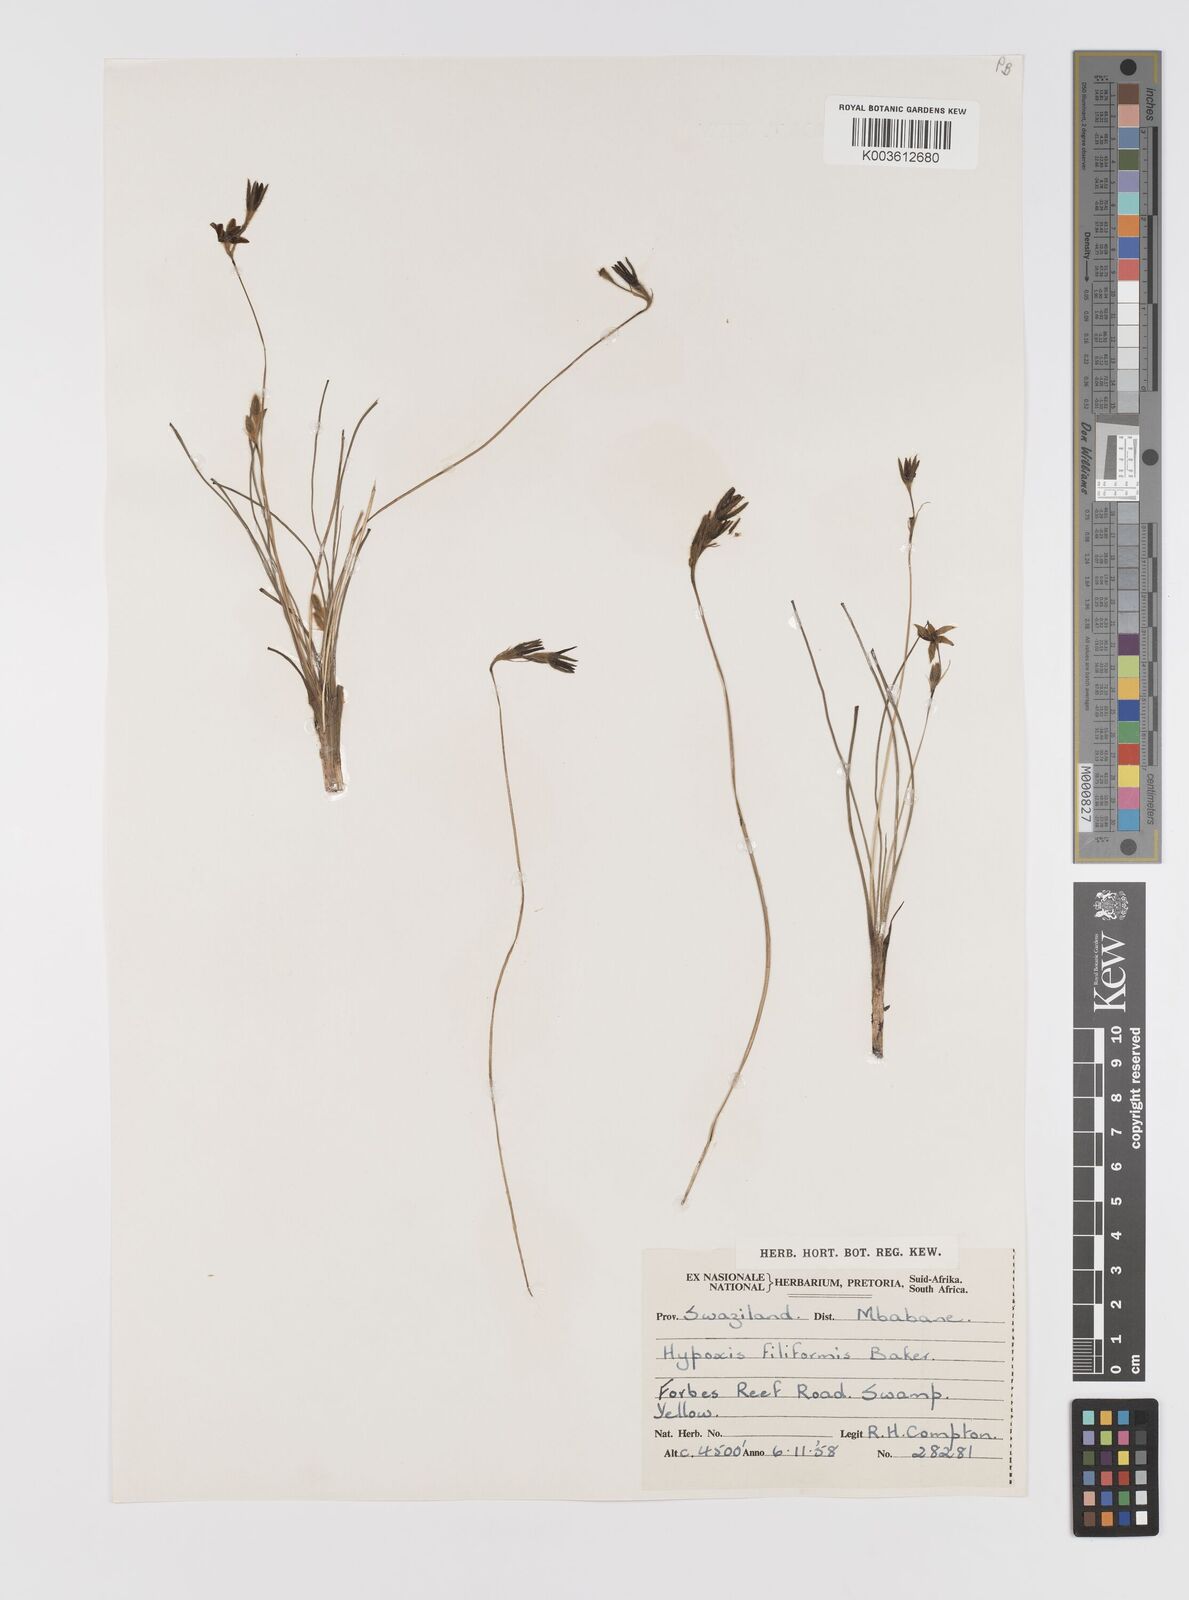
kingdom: Plantae
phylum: Tracheophyta
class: Liliopsida
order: Asparagales
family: Hypoxidaceae
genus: Hypoxis
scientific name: Hypoxis filiformis
